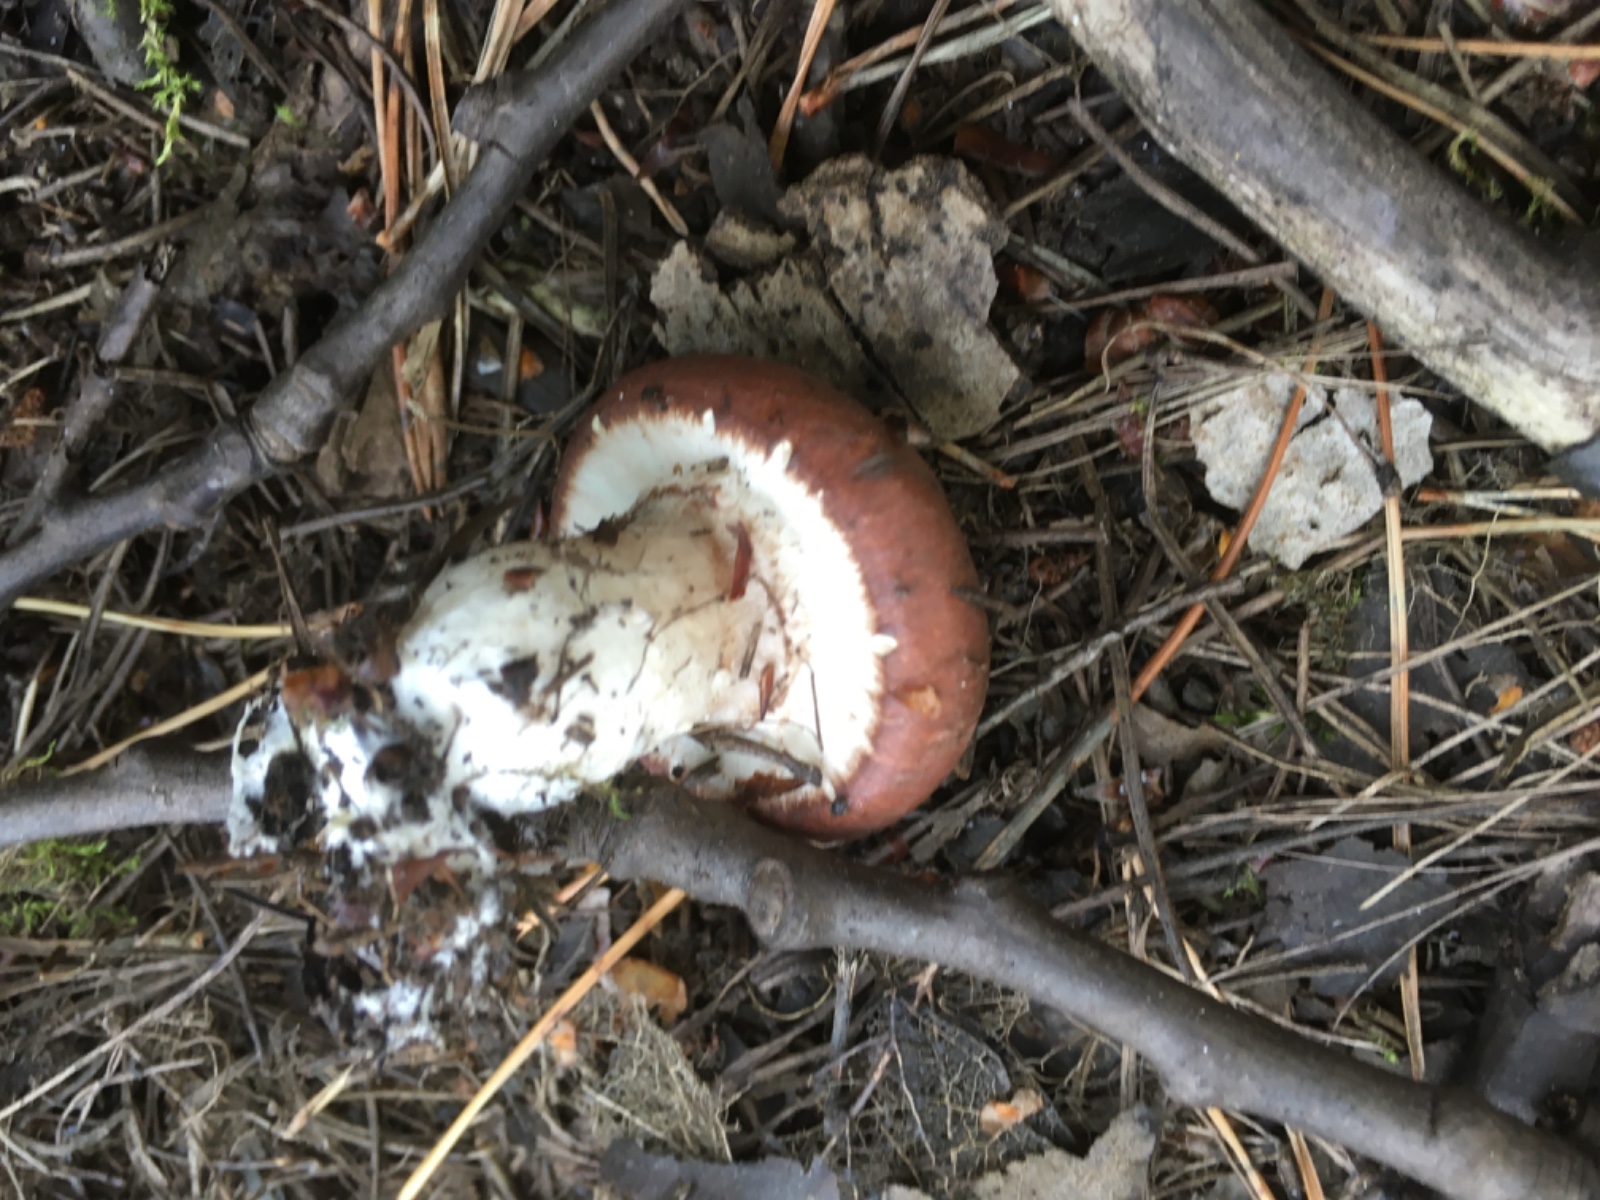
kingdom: Fungi
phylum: Basidiomycota
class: Agaricomycetes
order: Boletales
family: Suillaceae
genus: Suillus
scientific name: Suillus luteus
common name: brungul slimrørhat
